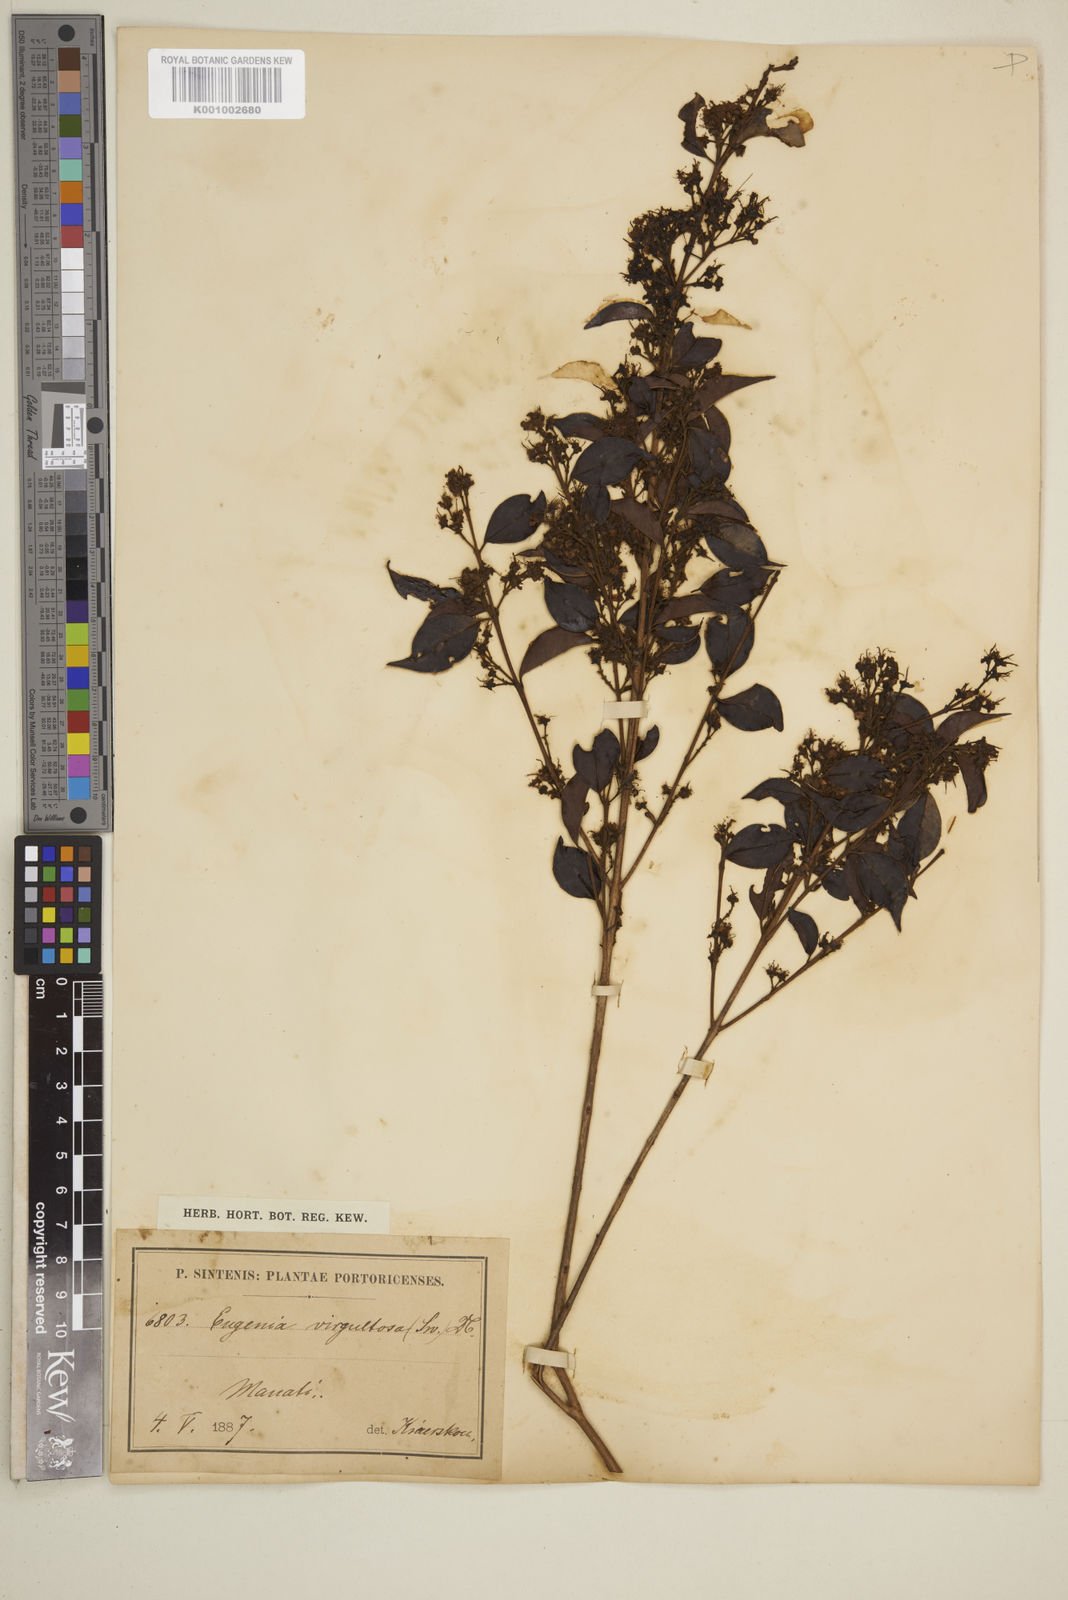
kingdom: Plantae
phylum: Tracheophyta
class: Magnoliopsida
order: Myrtales
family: Myrtaceae
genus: Eugenia
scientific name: Eugenia biflora
